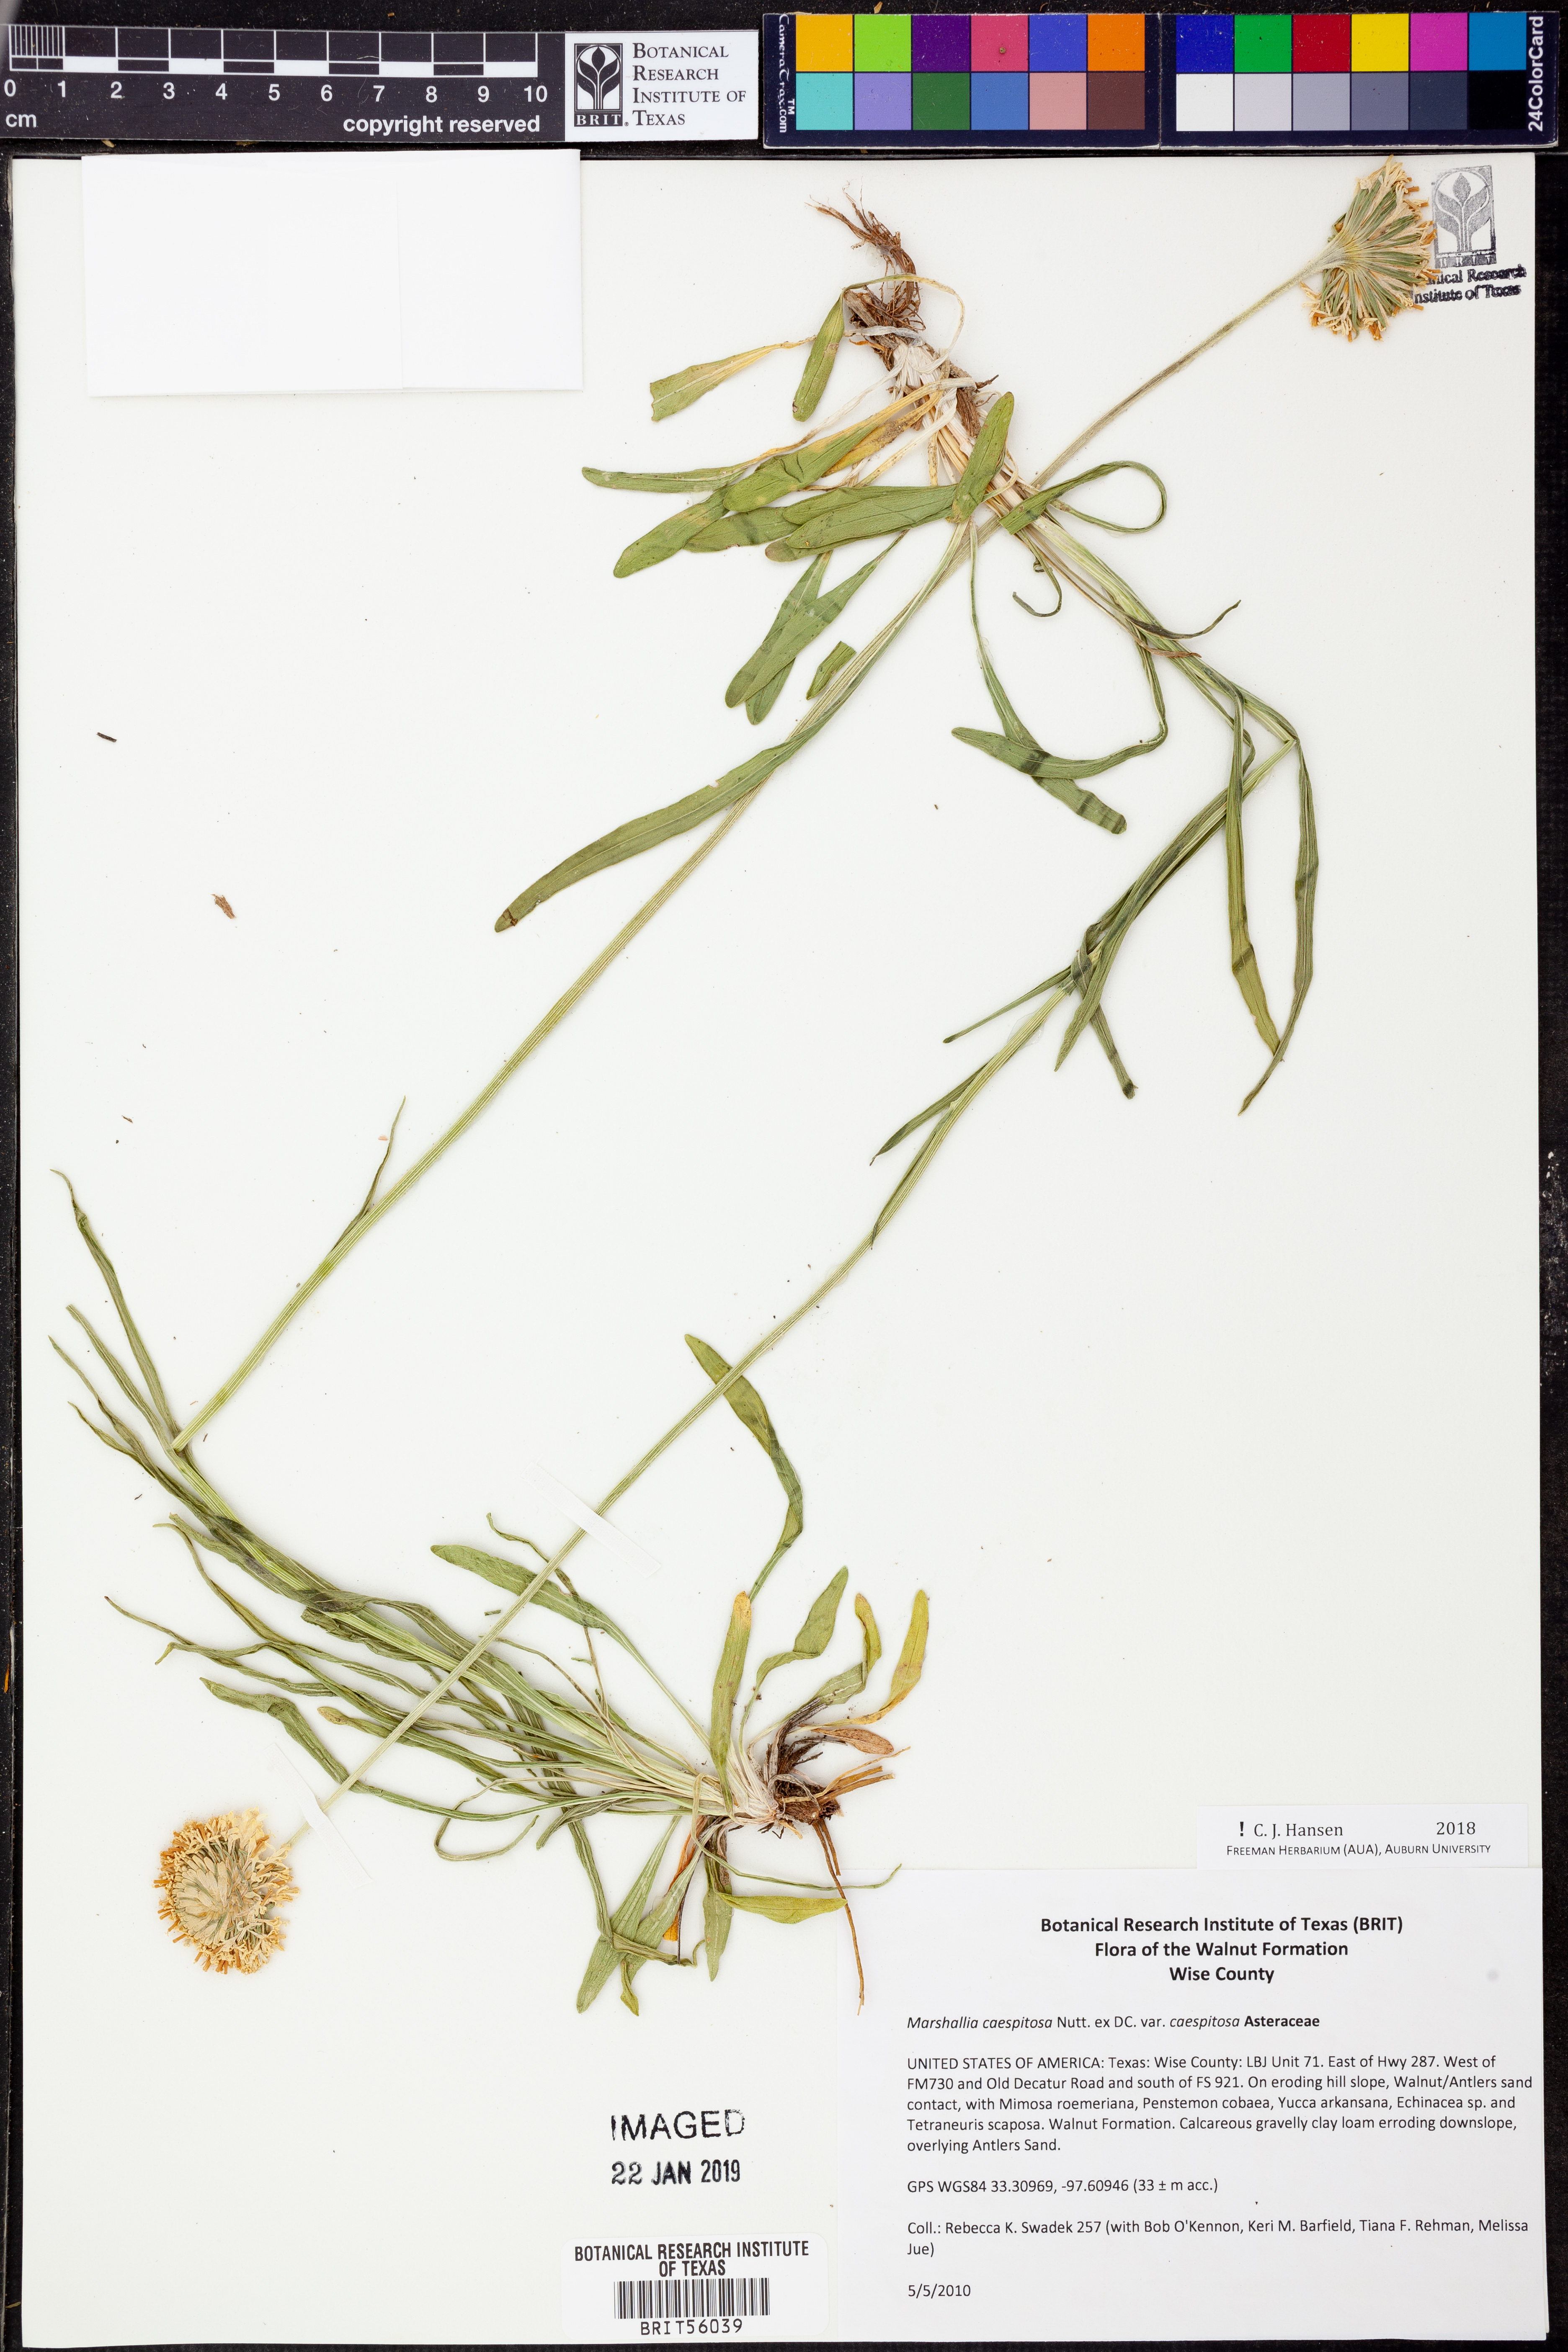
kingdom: Plantae
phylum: Tracheophyta
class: Magnoliopsida
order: Asterales
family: Asteraceae
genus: Marshallia
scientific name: Marshallia caespitosa
